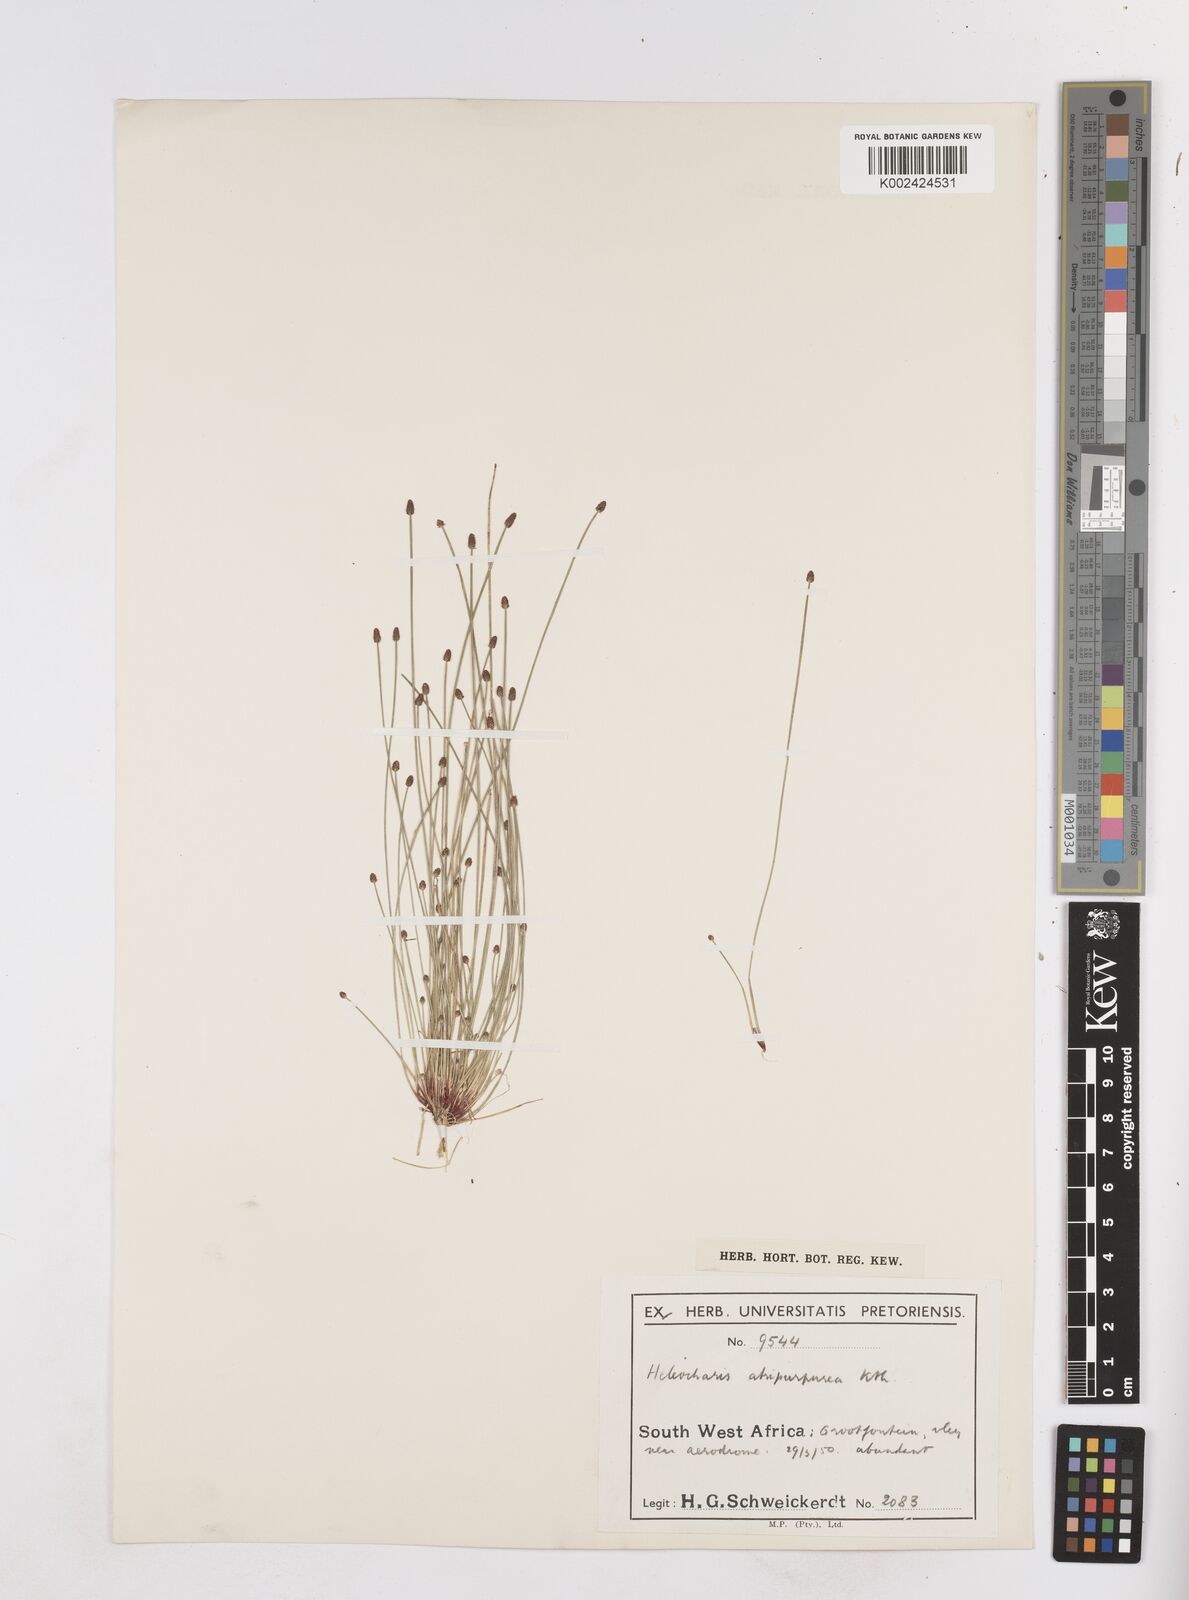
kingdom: Plantae
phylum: Tracheophyta
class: Liliopsida
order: Poales
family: Cyperaceae
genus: Eleocharis
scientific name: Eleocharis atropurpurea
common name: Purple spikerush
